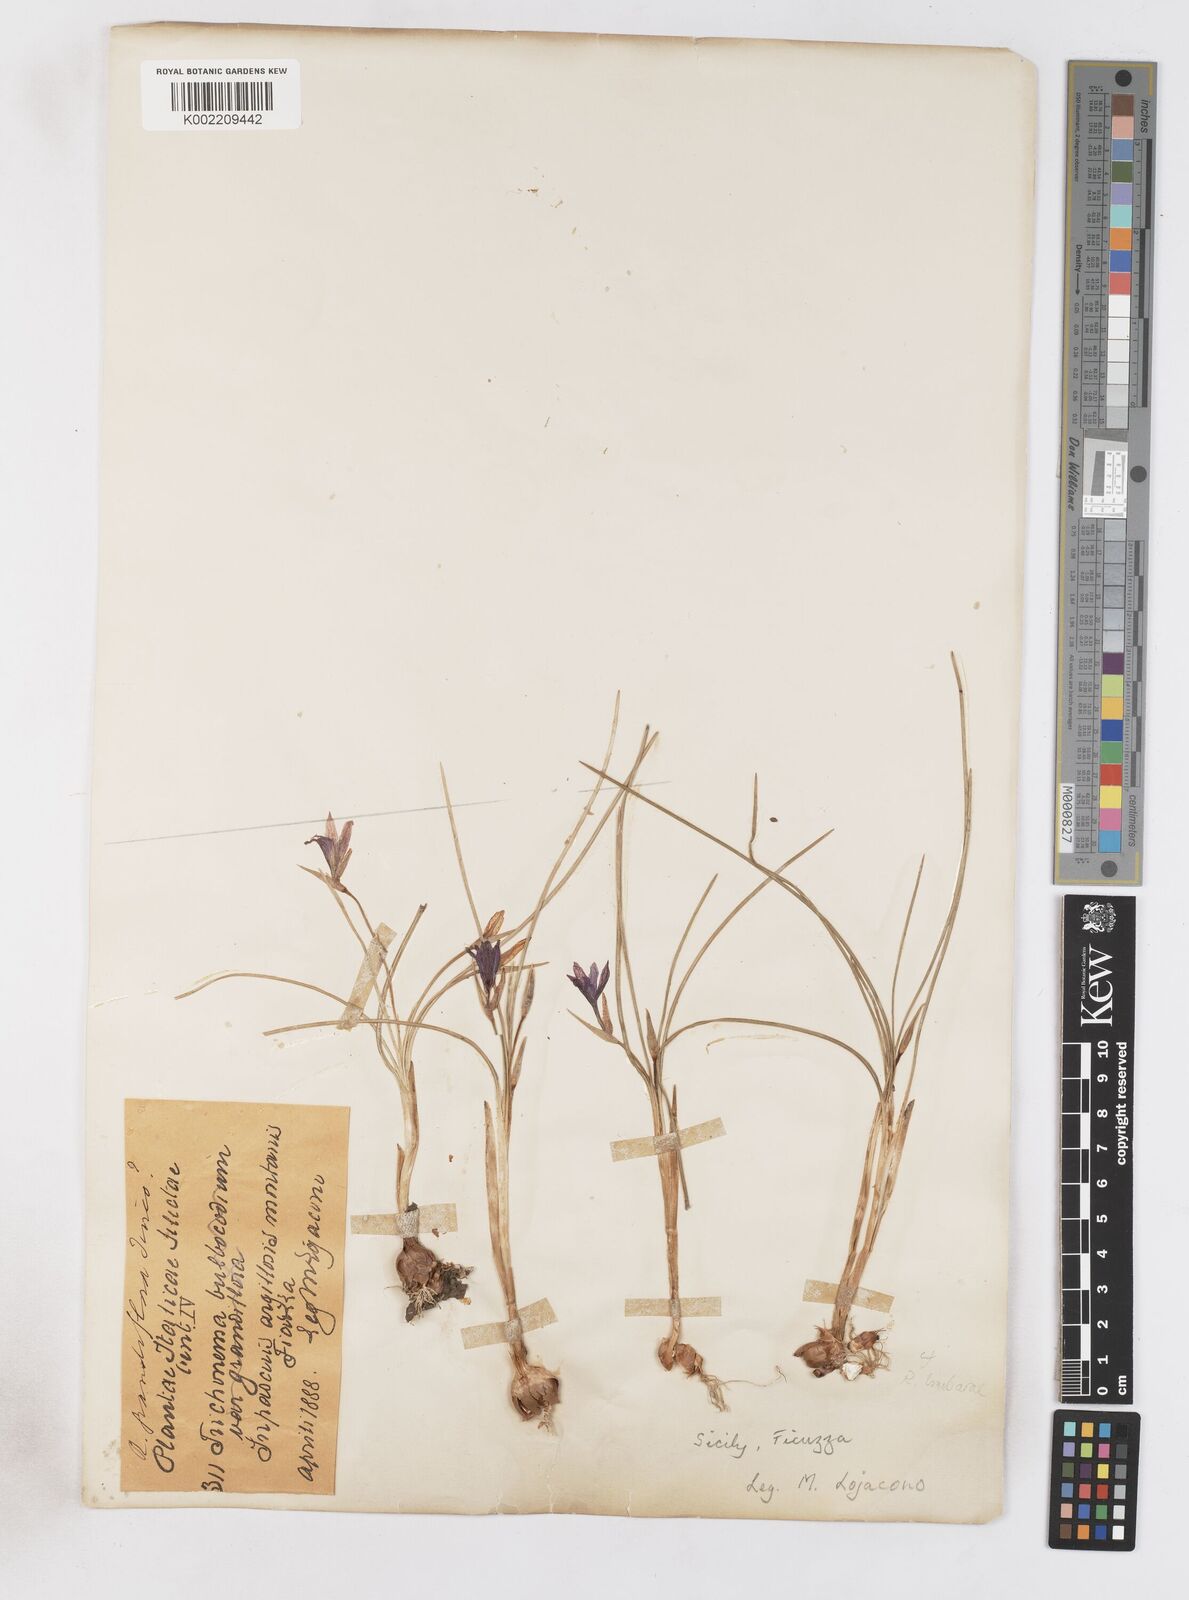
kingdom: Plantae
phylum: Tracheophyta
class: Liliopsida
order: Asparagales
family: Iridaceae
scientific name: Iridaceae
